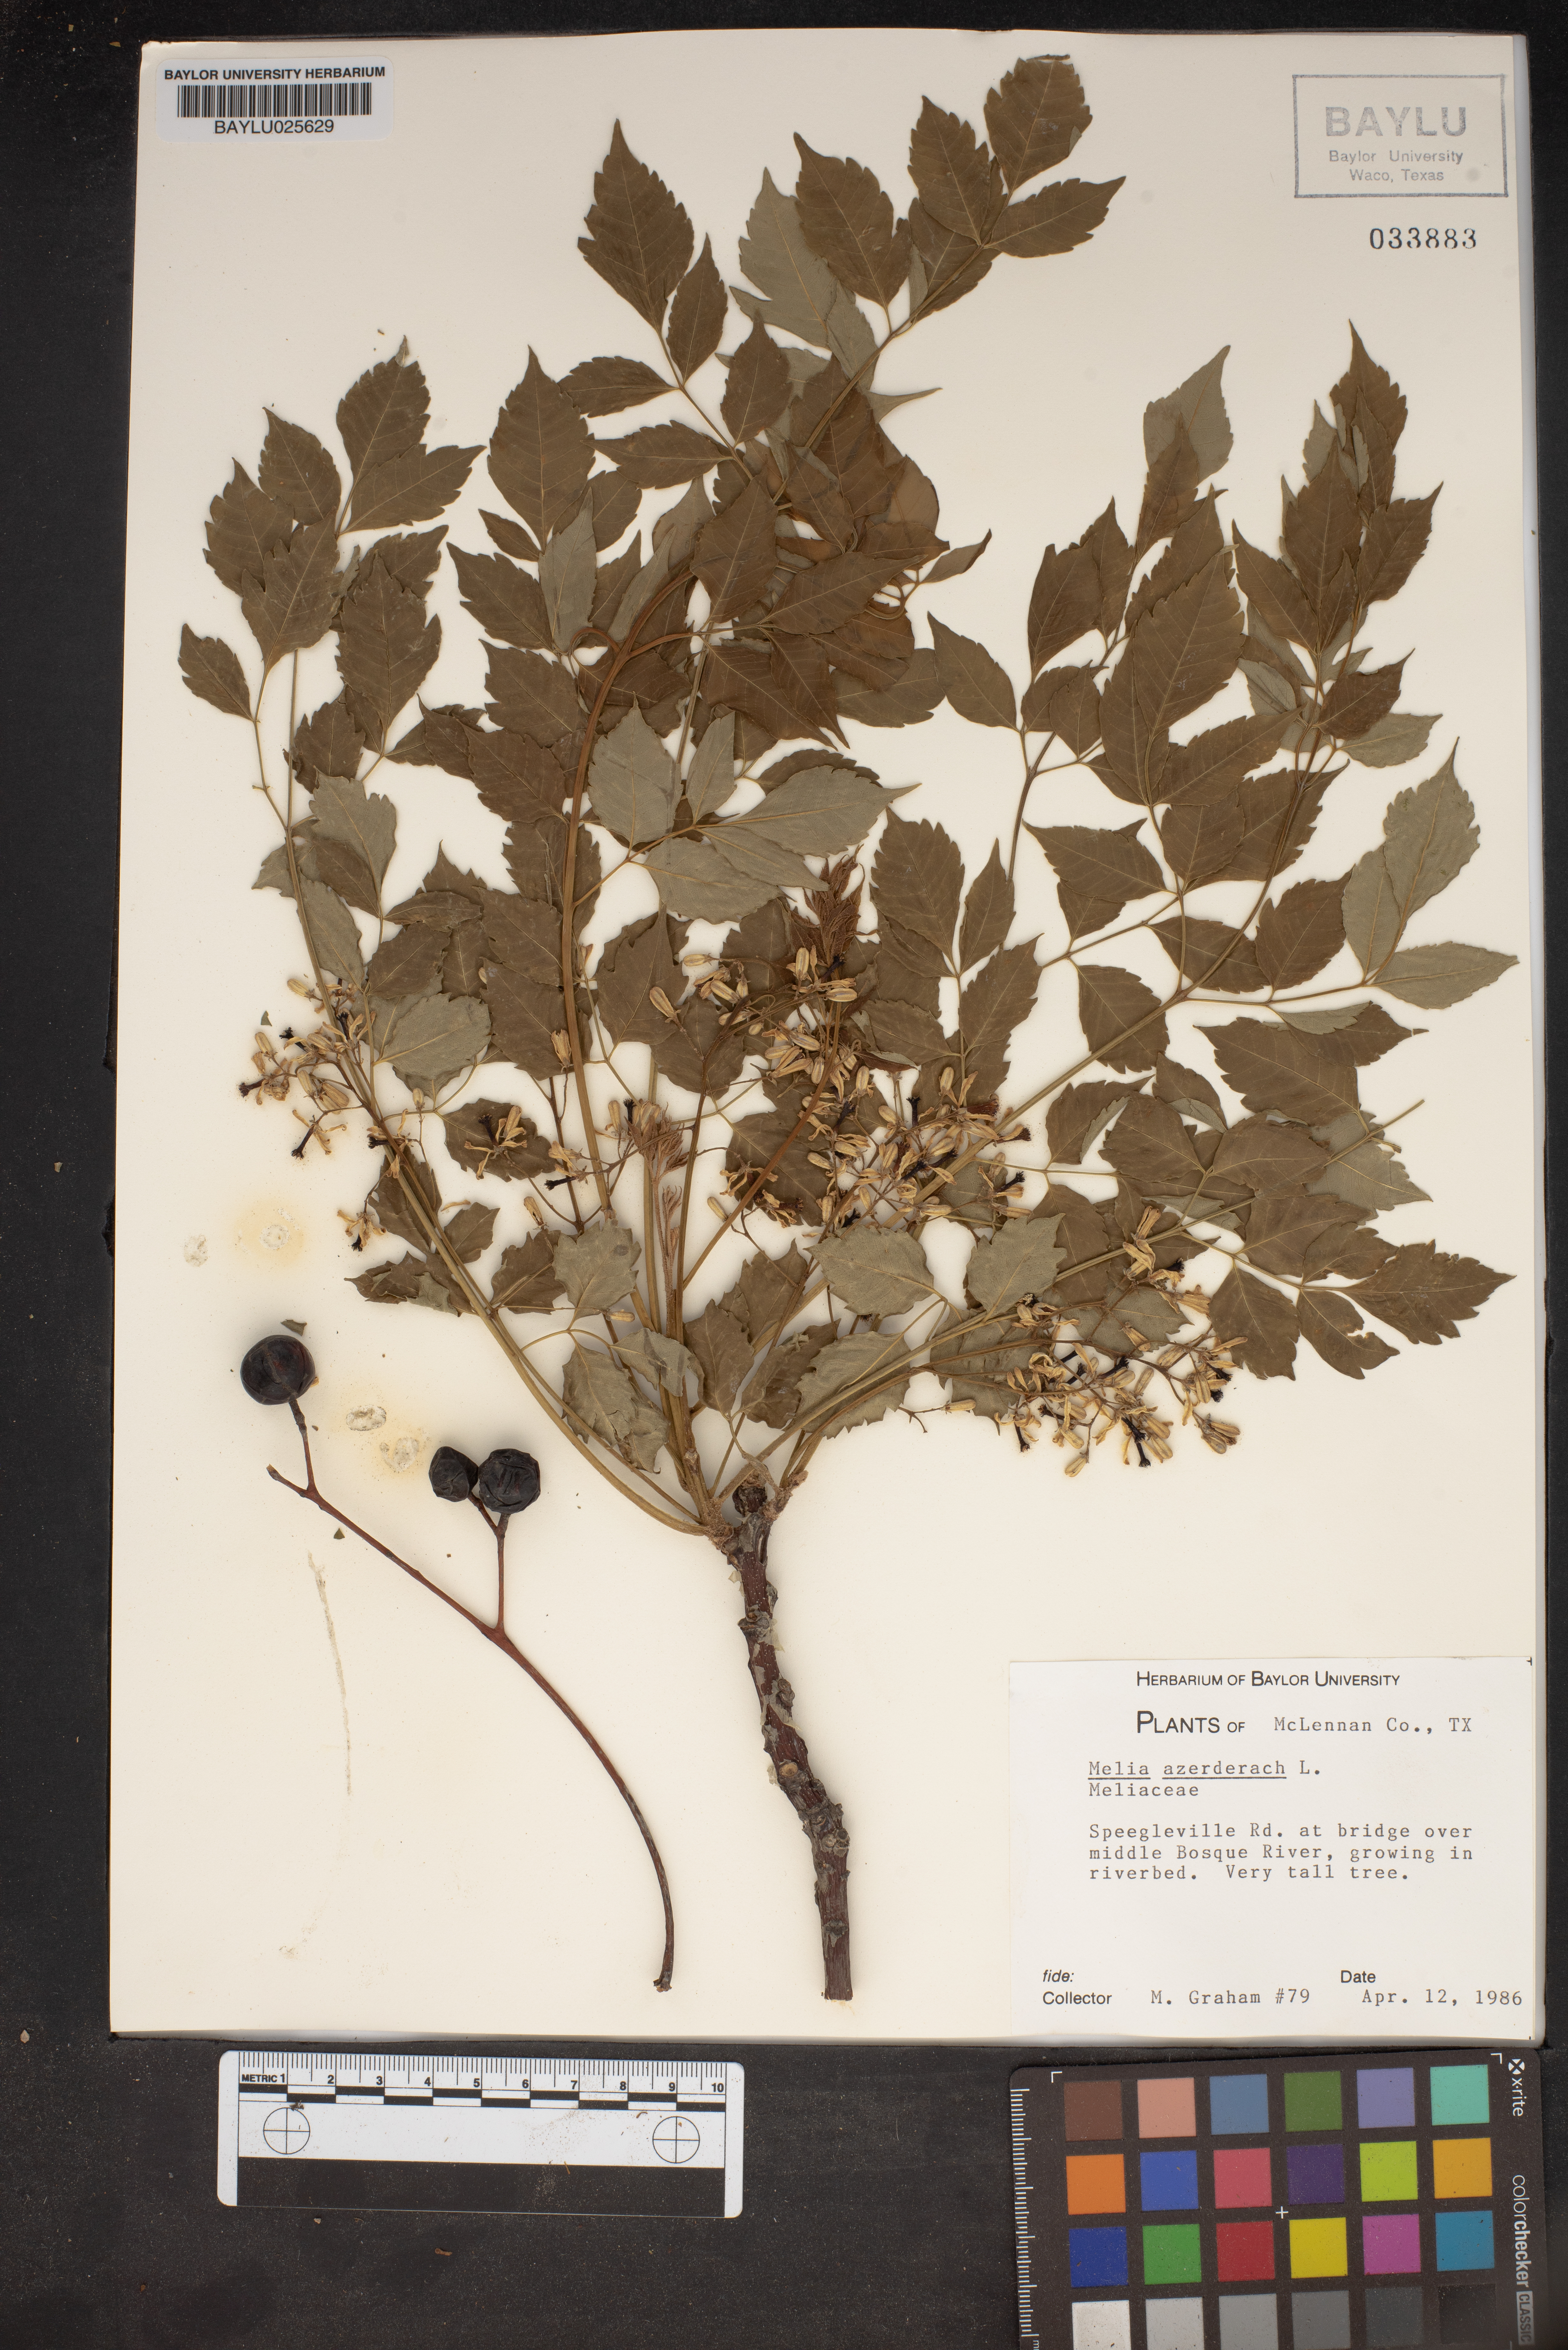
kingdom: Plantae
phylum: Tracheophyta
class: Magnoliopsida
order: Sapindales
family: Meliaceae
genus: Melia
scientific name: Melia azedarach
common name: Chinaberrytree
